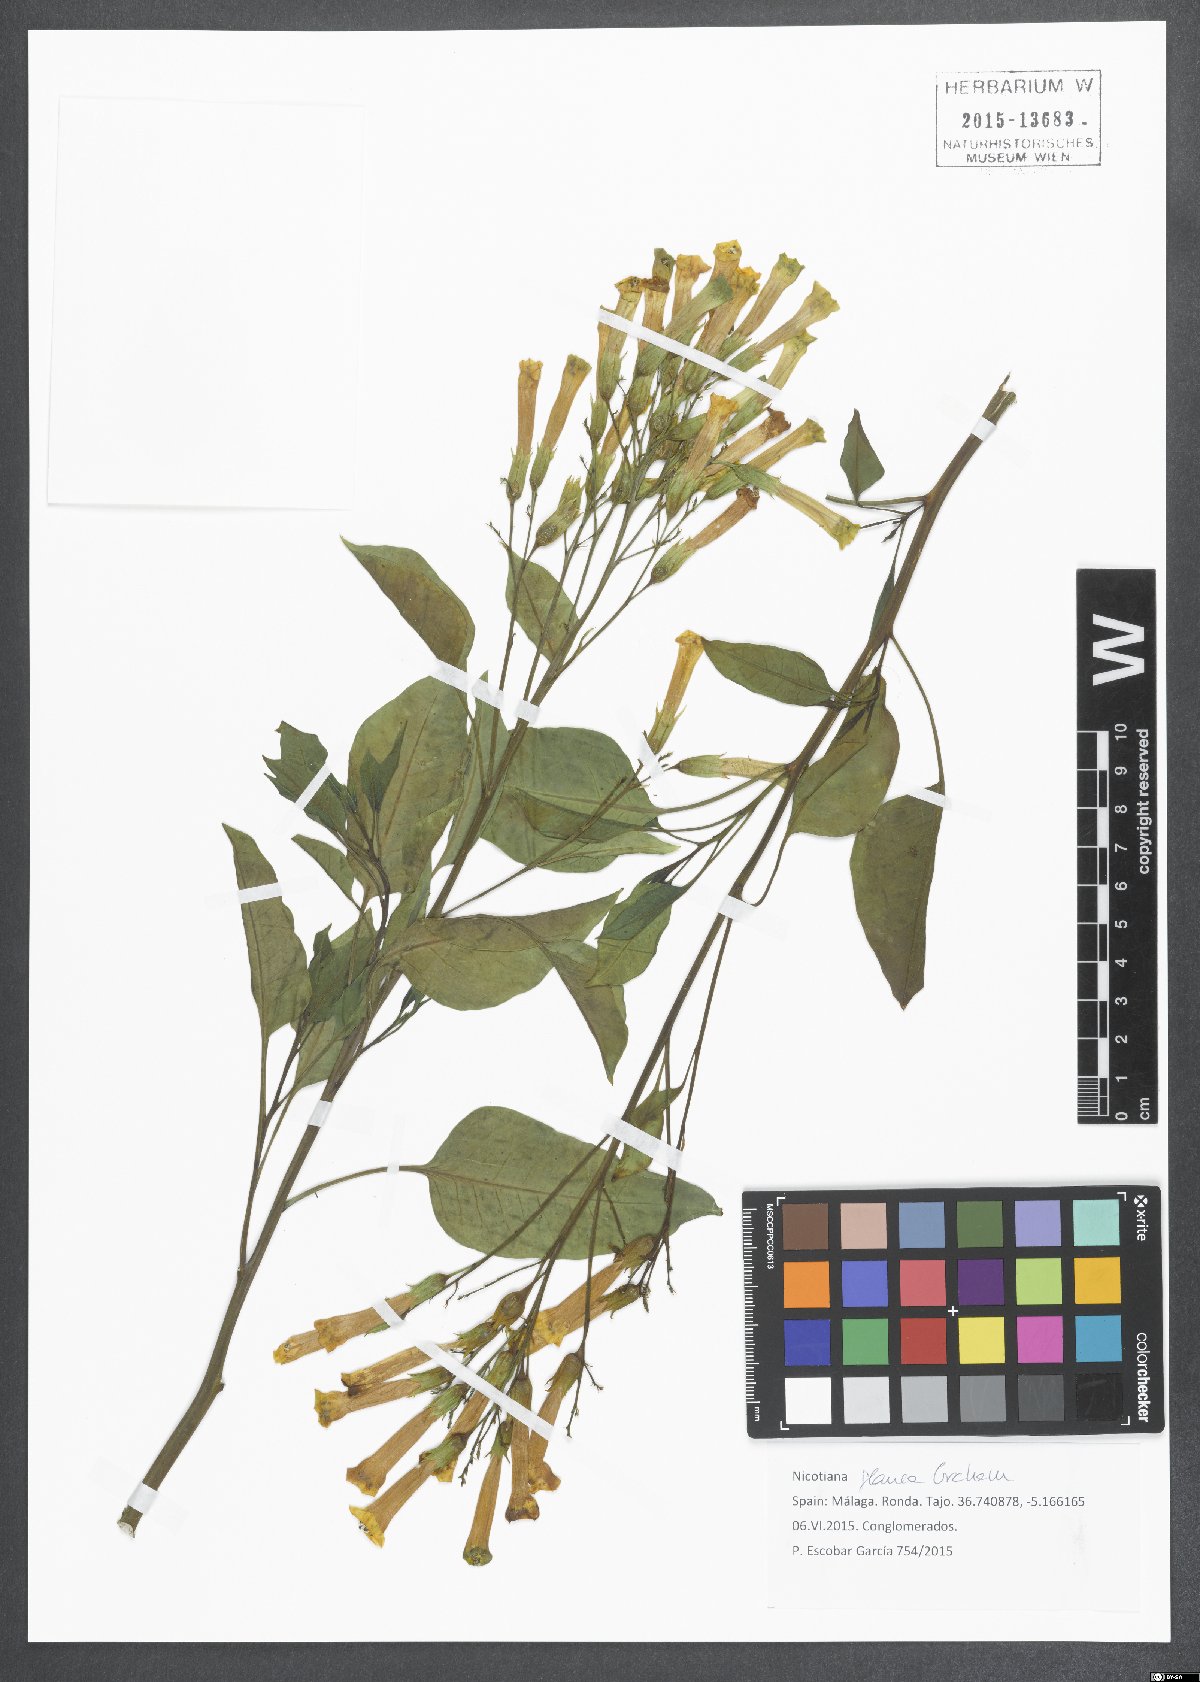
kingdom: Plantae
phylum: Tracheophyta
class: Magnoliopsida
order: Solanales
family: Solanaceae
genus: Nicotiana
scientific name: Nicotiana glauca
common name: Tree tobacco
